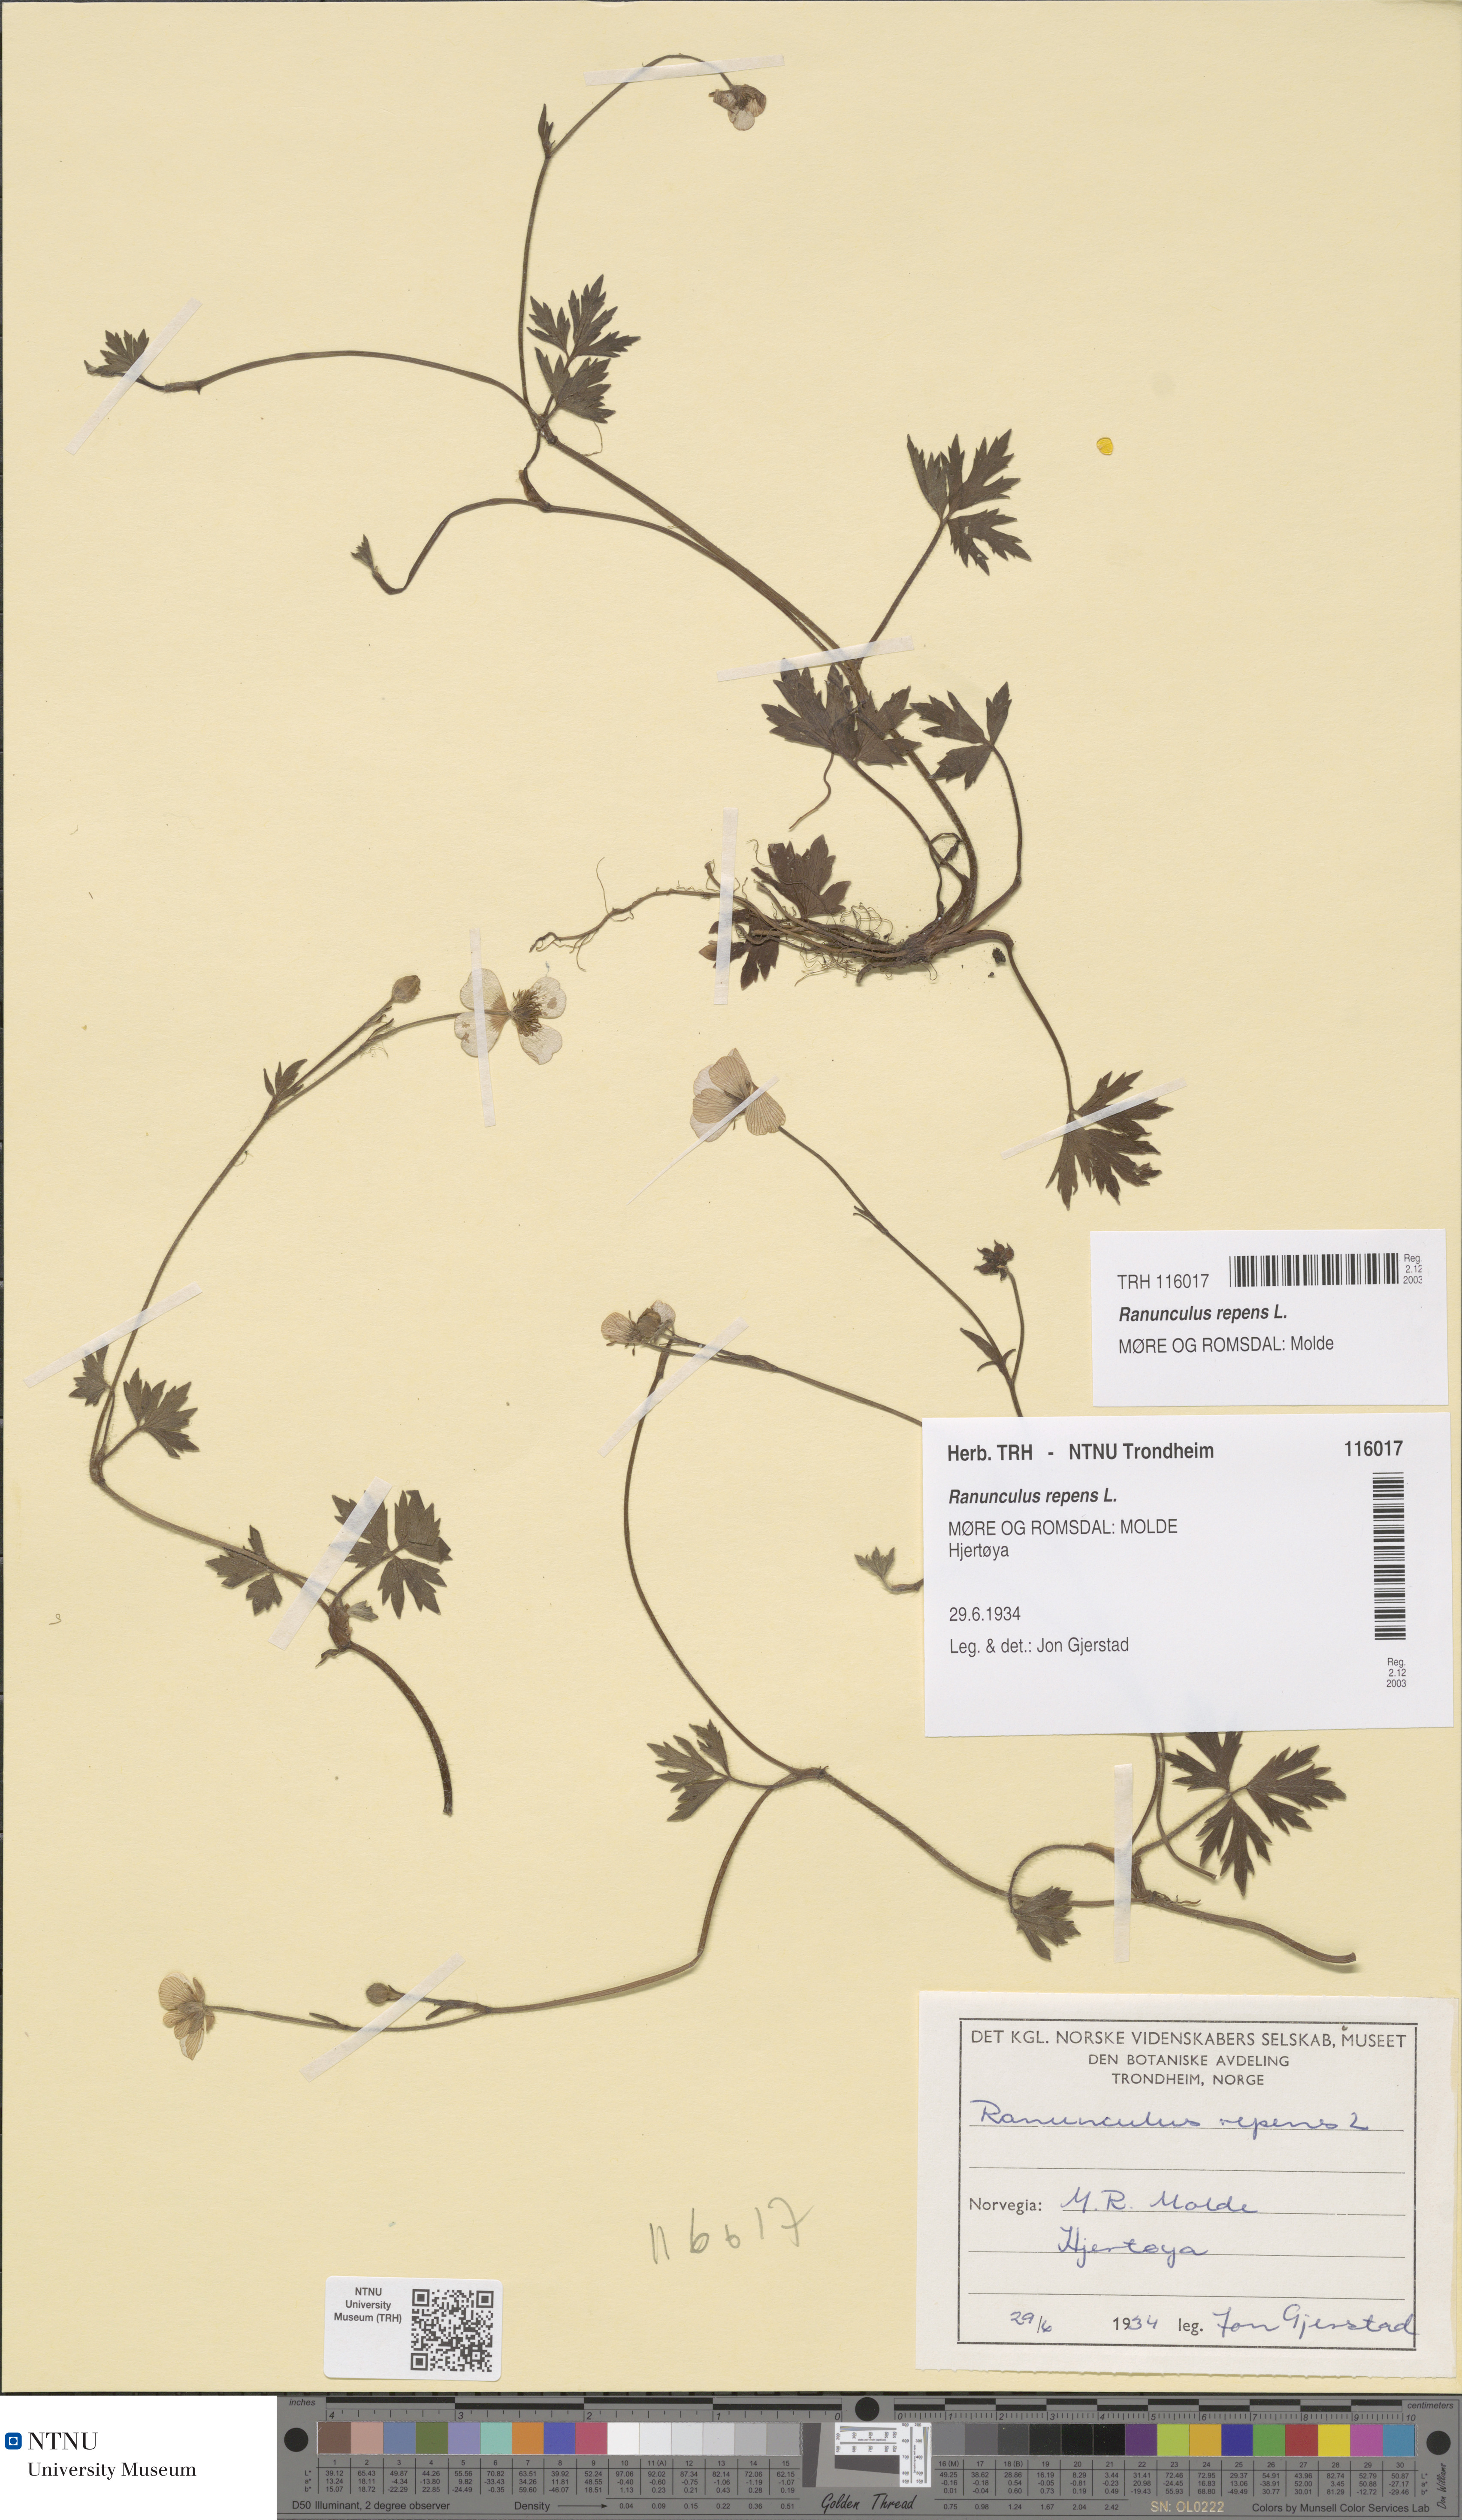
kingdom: Plantae
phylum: Tracheophyta
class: Magnoliopsida
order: Ranunculales
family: Ranunculaceae
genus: Ranunculus
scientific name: Ranunculus repens
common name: Creeping buttercup
